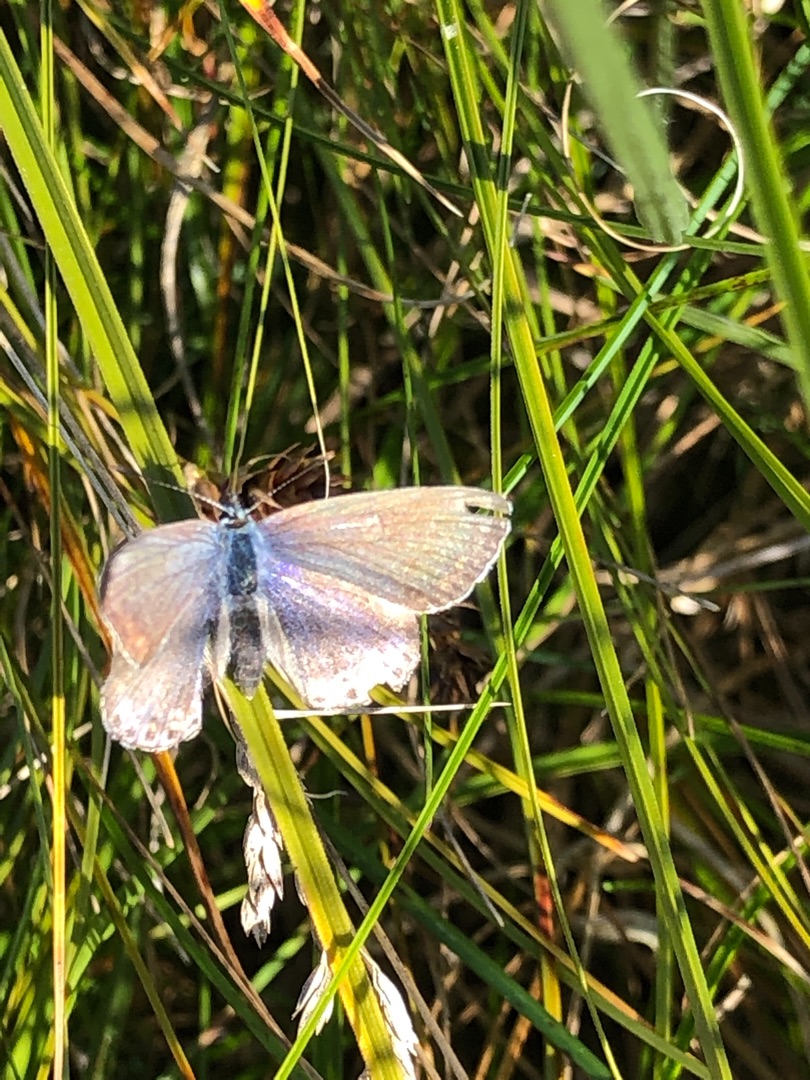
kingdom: Animalia
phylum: Arthropoda
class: Insecta
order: Lepidoptera
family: Lycaenidae
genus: Polyommatus
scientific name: Polyommatus icarus
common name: Almindelig blåfugl
